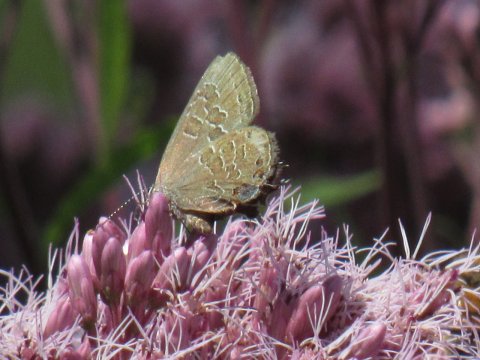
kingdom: Animalia
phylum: Arthropoda
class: Insecta
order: Lepidoptera
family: Lycaenidae
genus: Satyrium
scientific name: Satyrium liparops
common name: Striped Hairstreak
